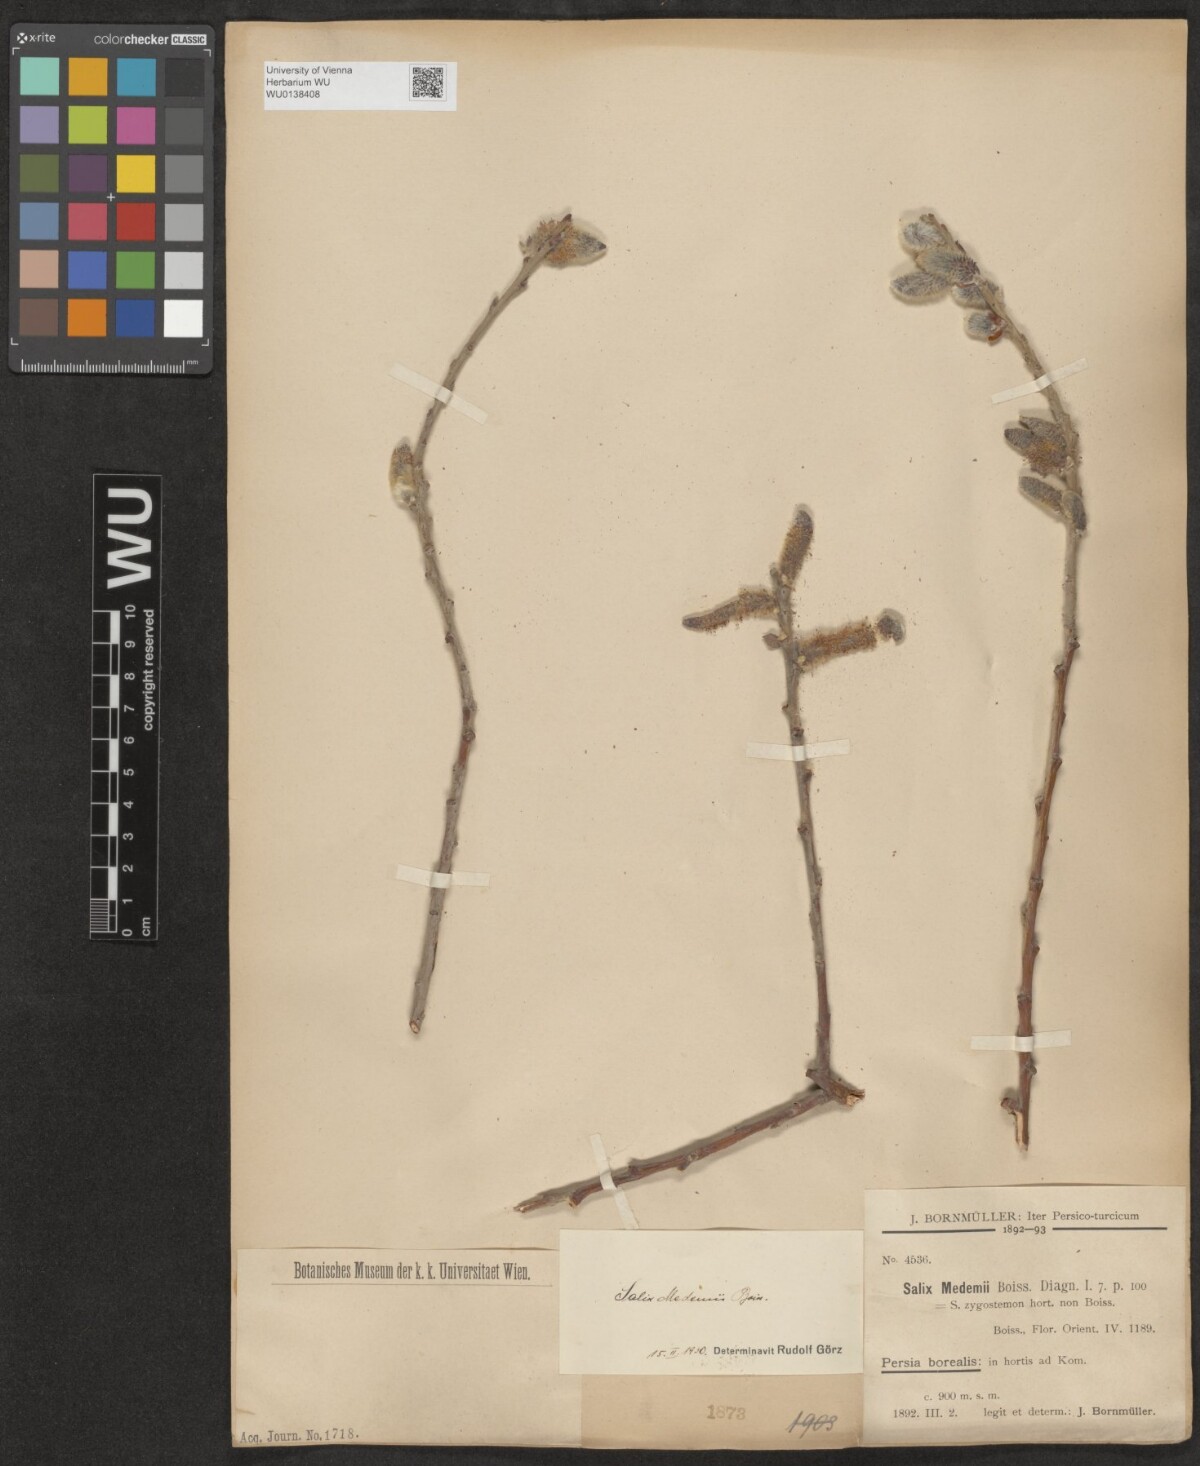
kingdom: Plantae
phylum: Tracheophyta
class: Magnoliopsida
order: Malpighiales
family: Salicaceae
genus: Salix
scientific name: Salix aegyptiaca
